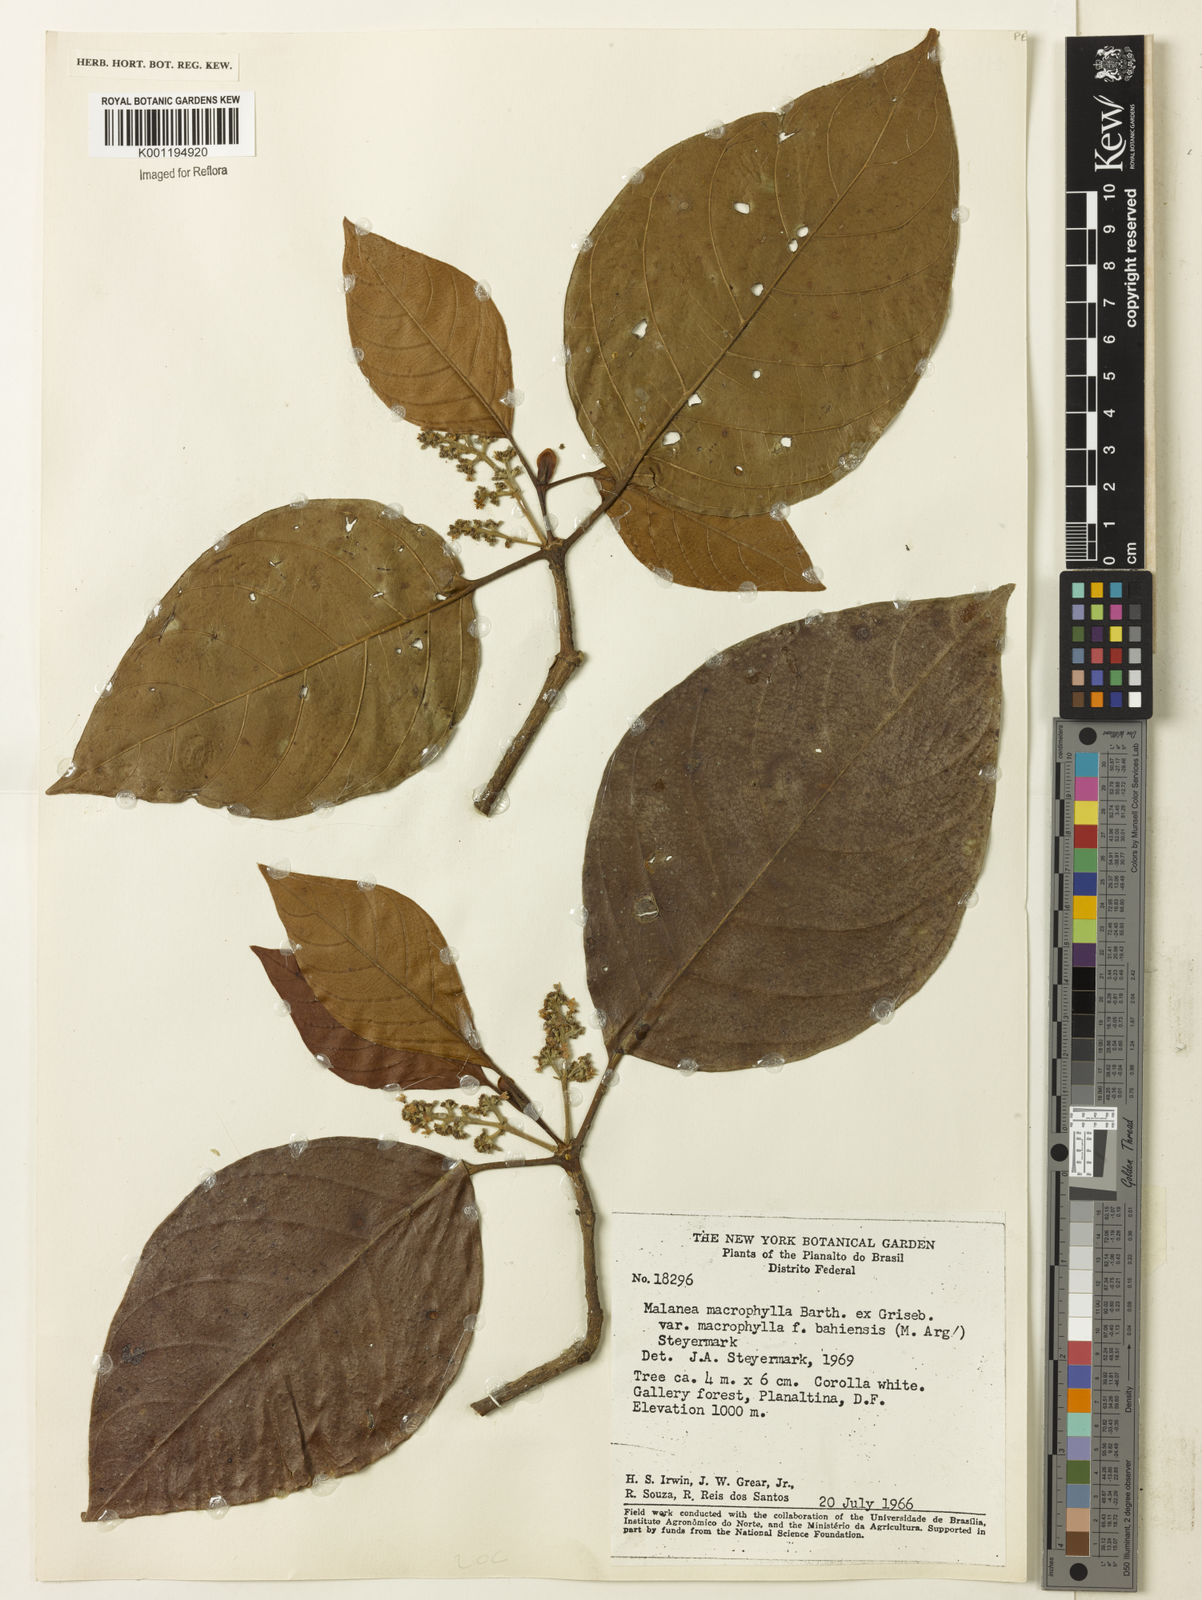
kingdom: Plantae
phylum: Tracheophyta
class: Magnoliopsida
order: Gentianales
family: Rubiaceae
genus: Malanea
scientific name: Malanea glabra
